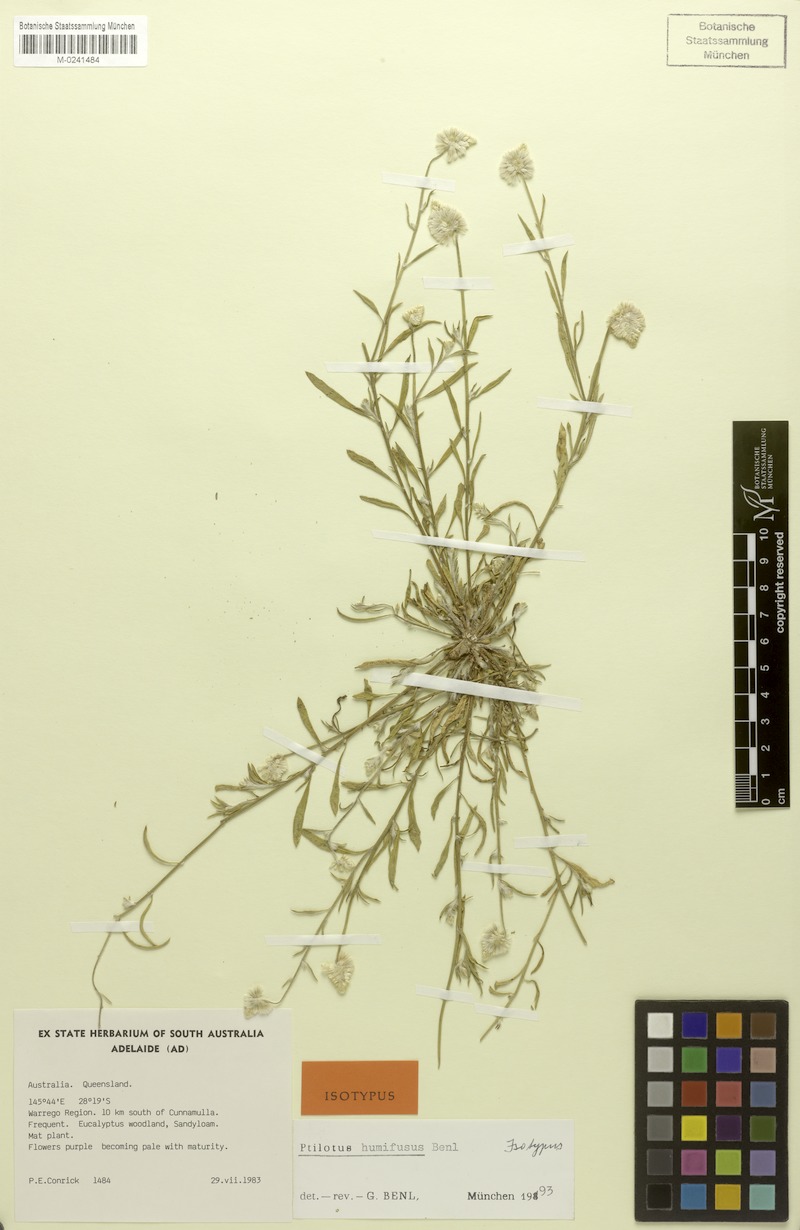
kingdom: Plantae
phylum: Tracheophyta
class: Magnoliopsida
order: Caryophyllales
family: Amaranthaceae
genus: Ptilotus
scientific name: Ptilotus leucocoma
